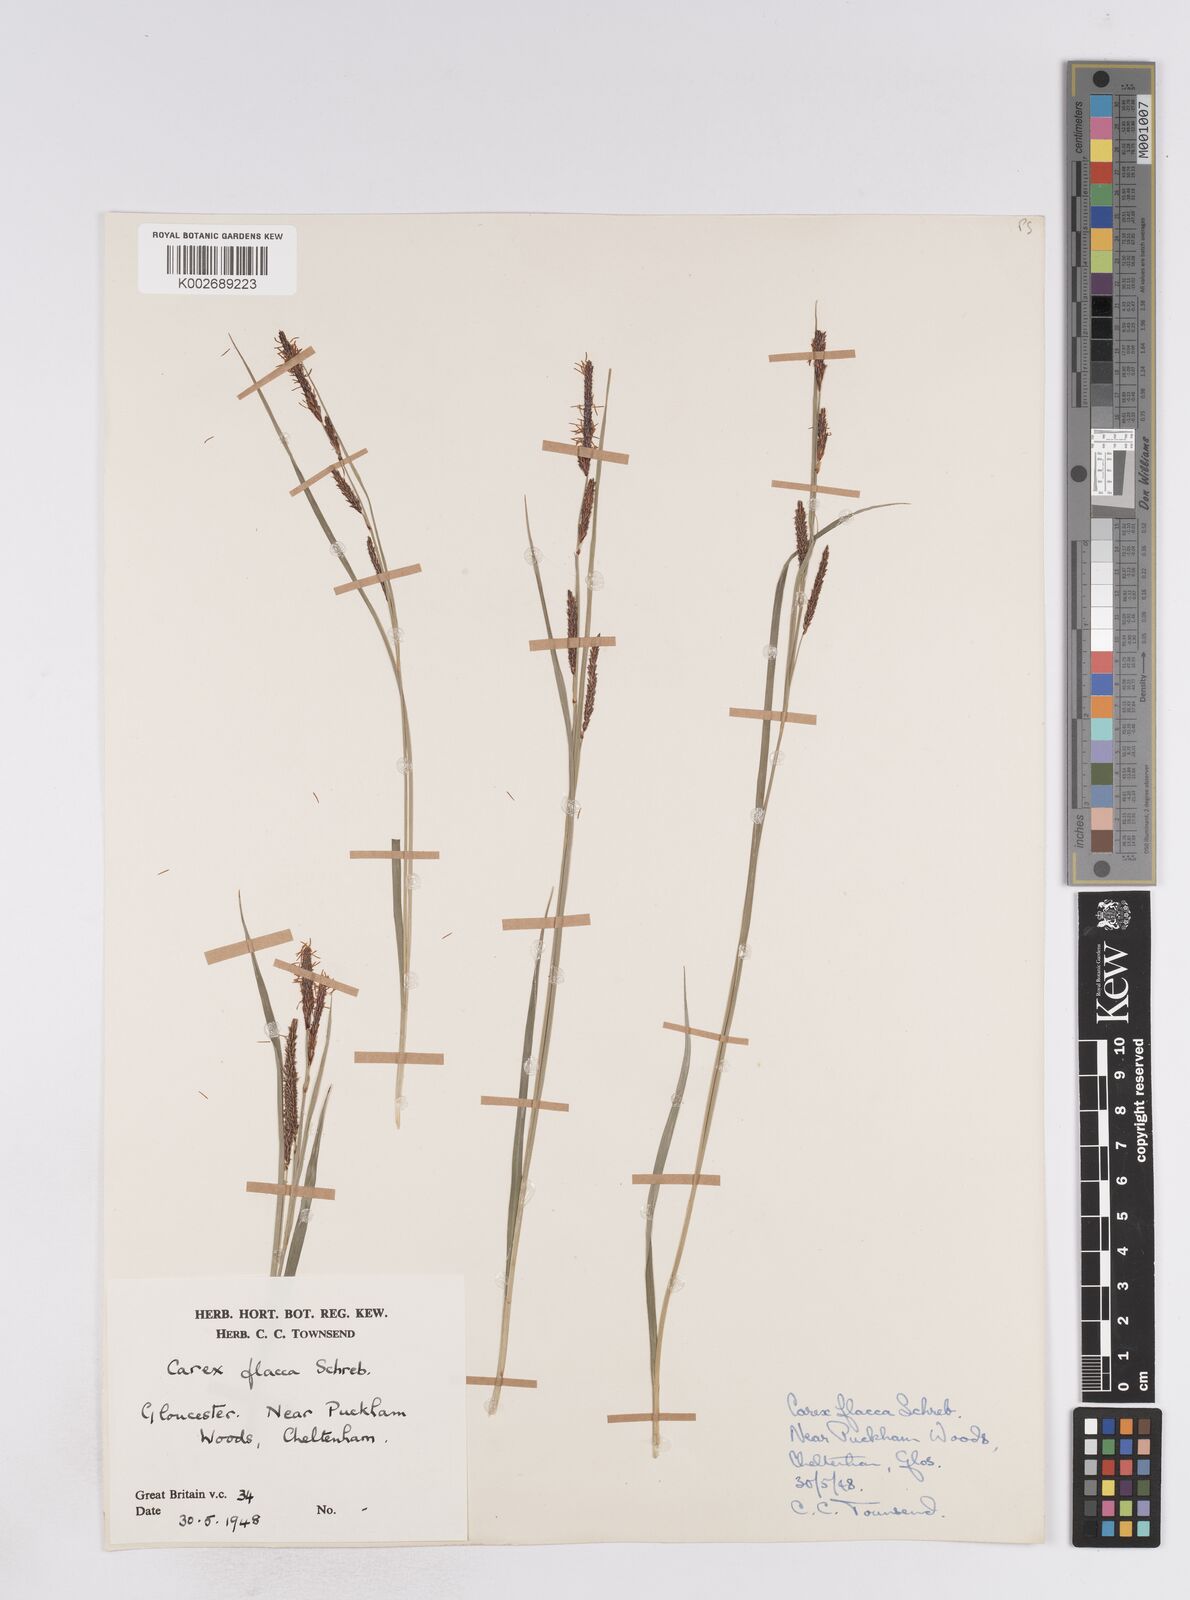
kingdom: Plantae
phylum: Tracheophyta
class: Liliopsida
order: Poales
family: Cyperaceae
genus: Carex
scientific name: Carex flacca
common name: Glaucous sedge
